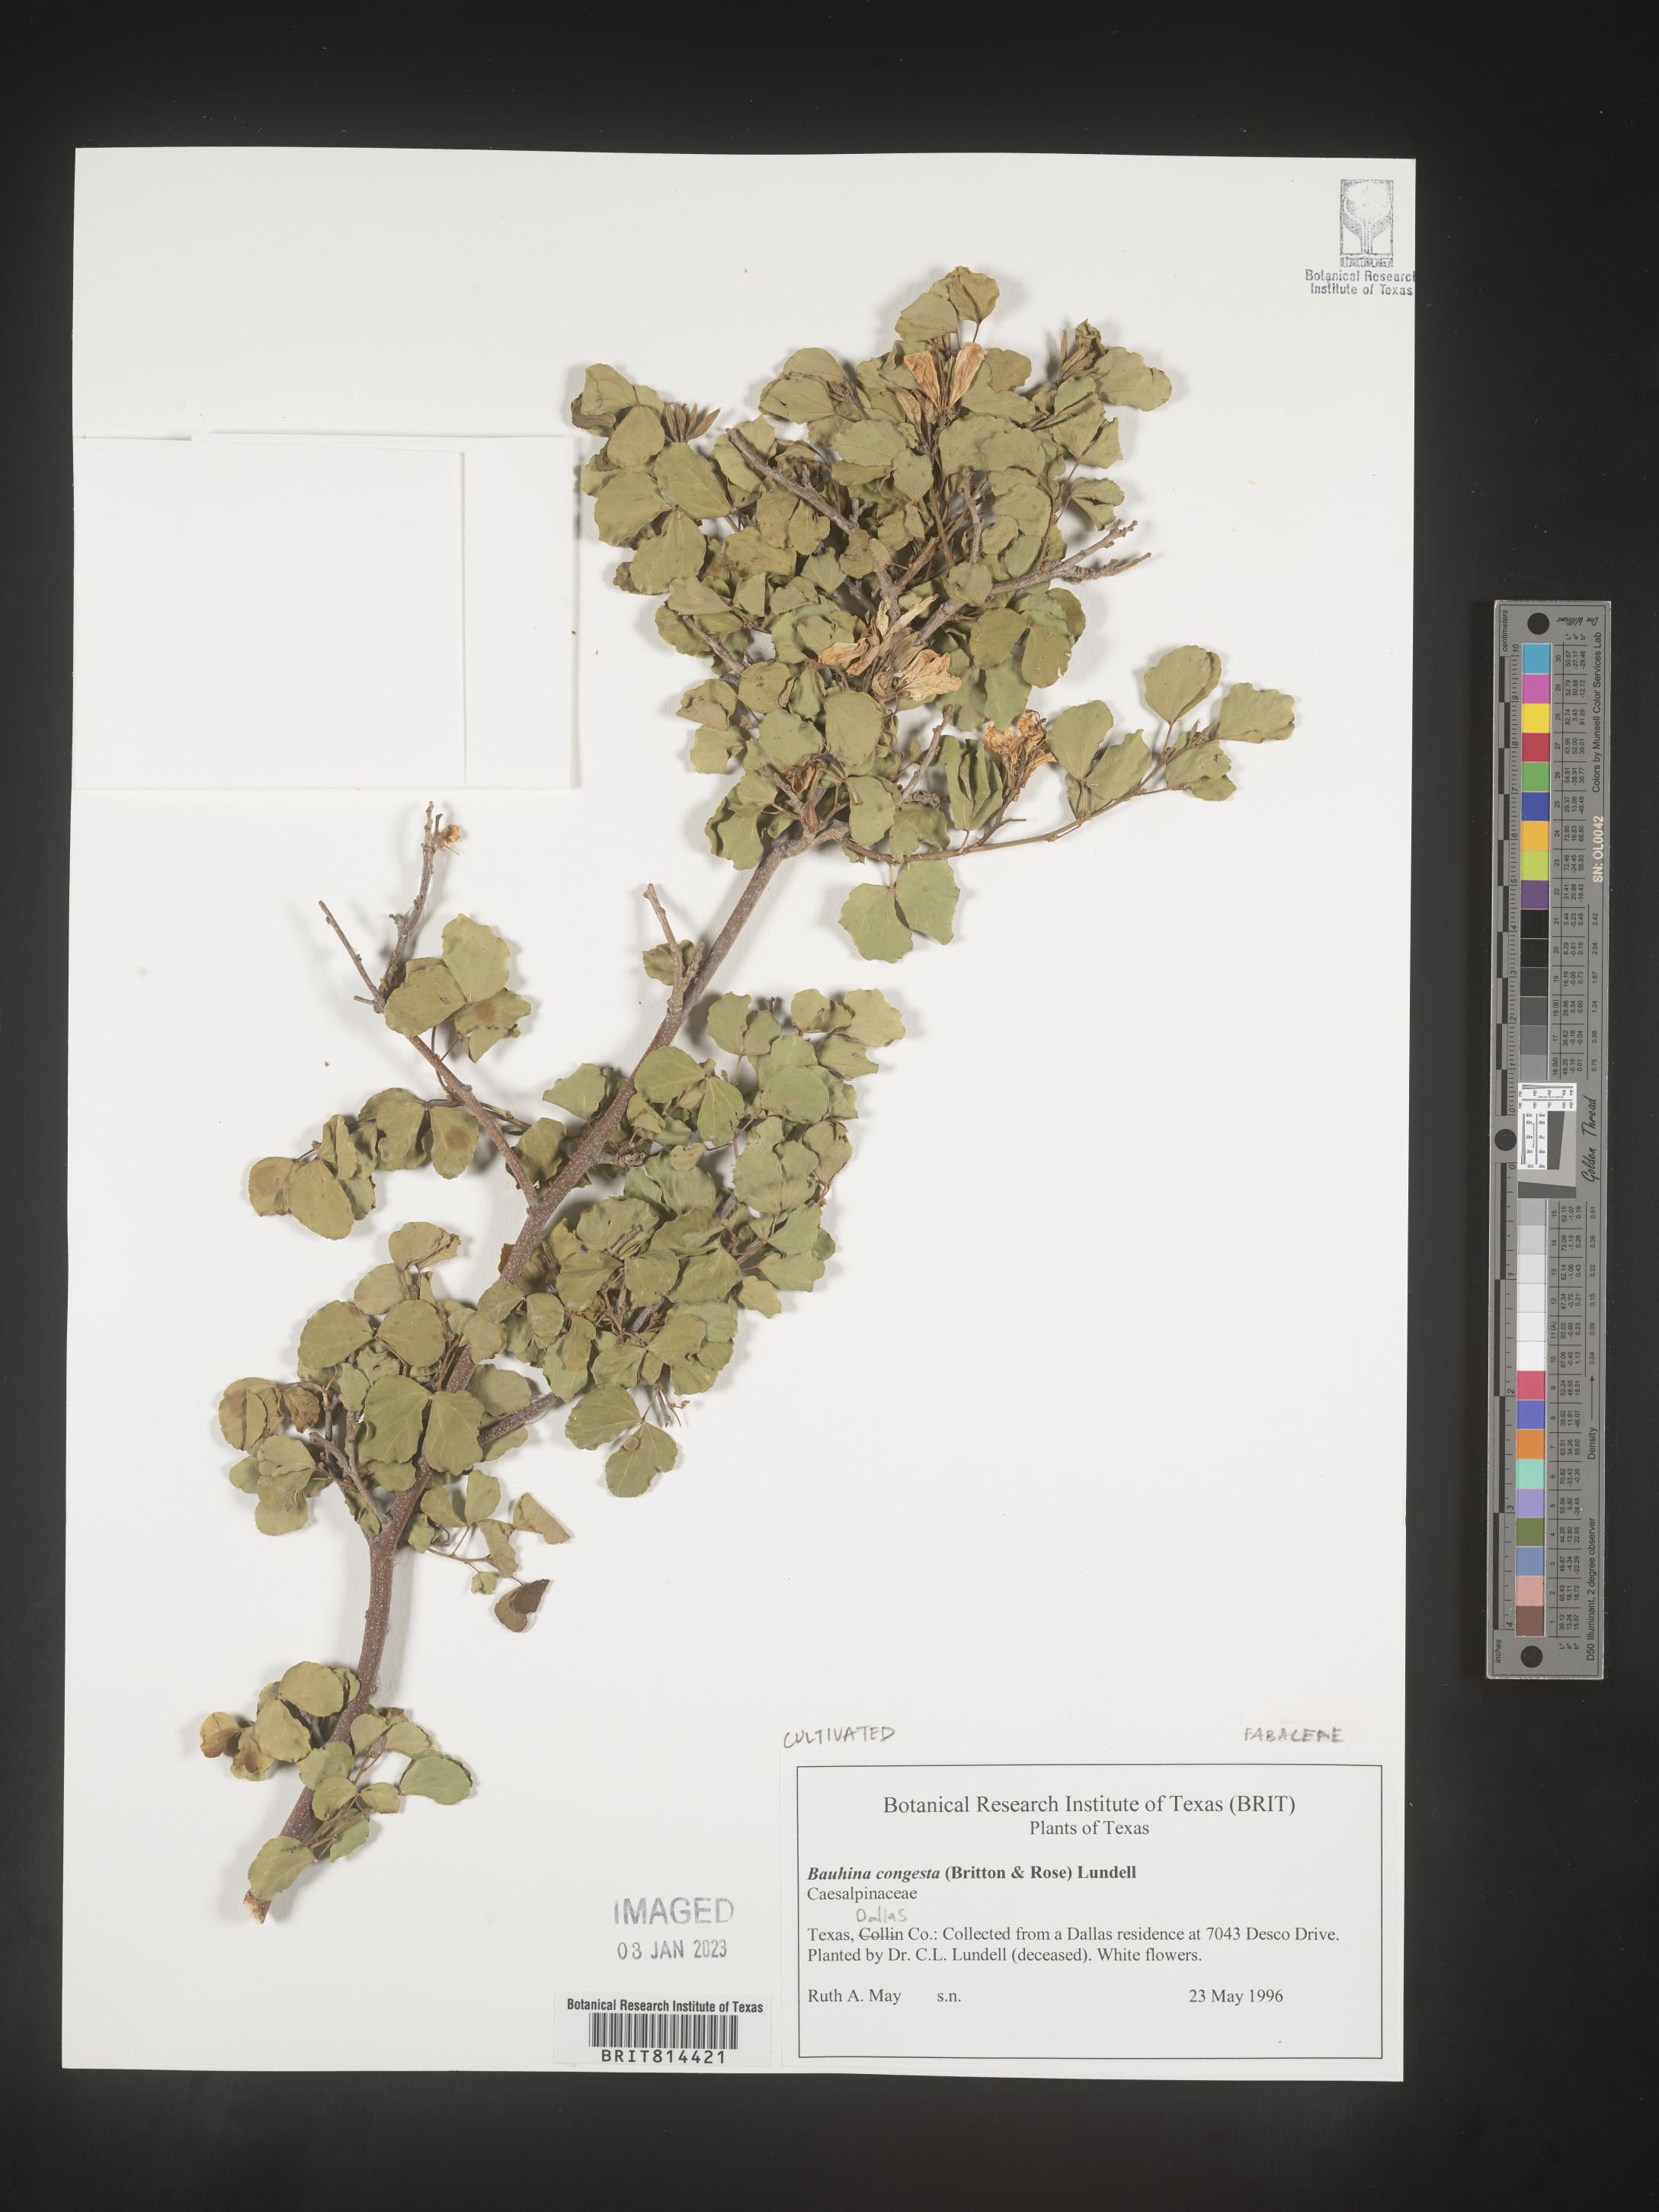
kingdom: Plantae
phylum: Tracheophyta
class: Magnoliopsida
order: Fabales
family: Fabaceae
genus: Bauhinia
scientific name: Bauhinia
